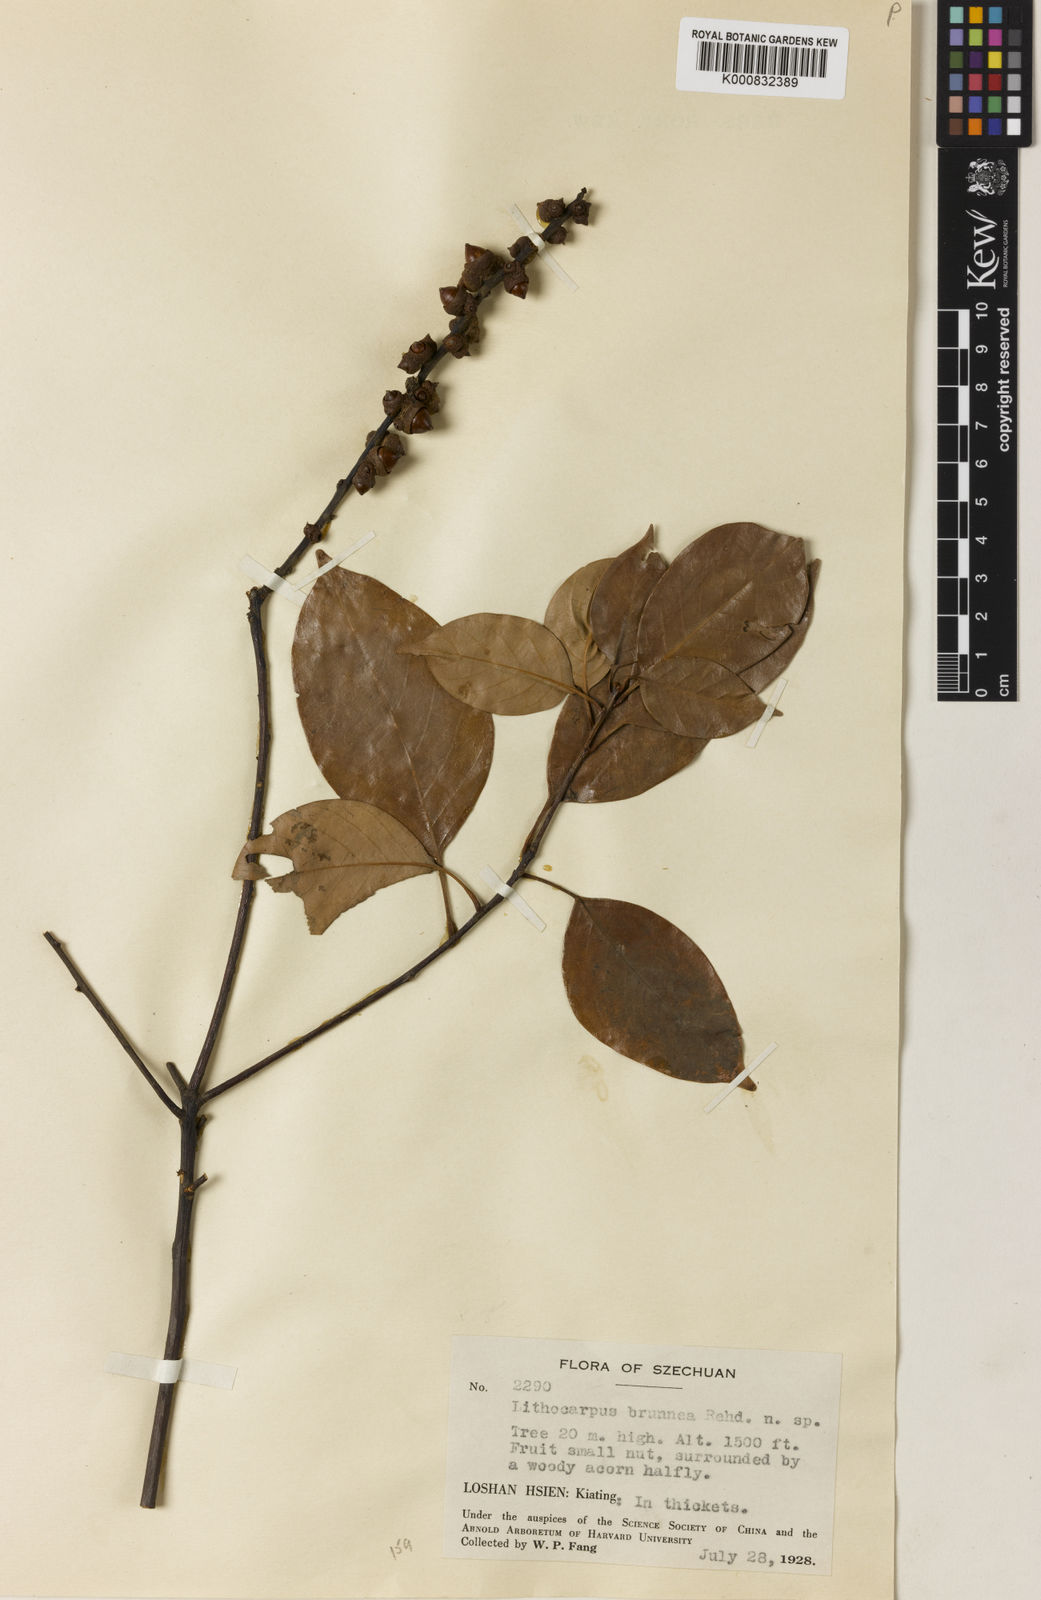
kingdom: Plantae
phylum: Tracheophyta
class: Magnoliopsida
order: Fagales
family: Fagaceae
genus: Lithocarpus
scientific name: Lithocarpus taitoensis
